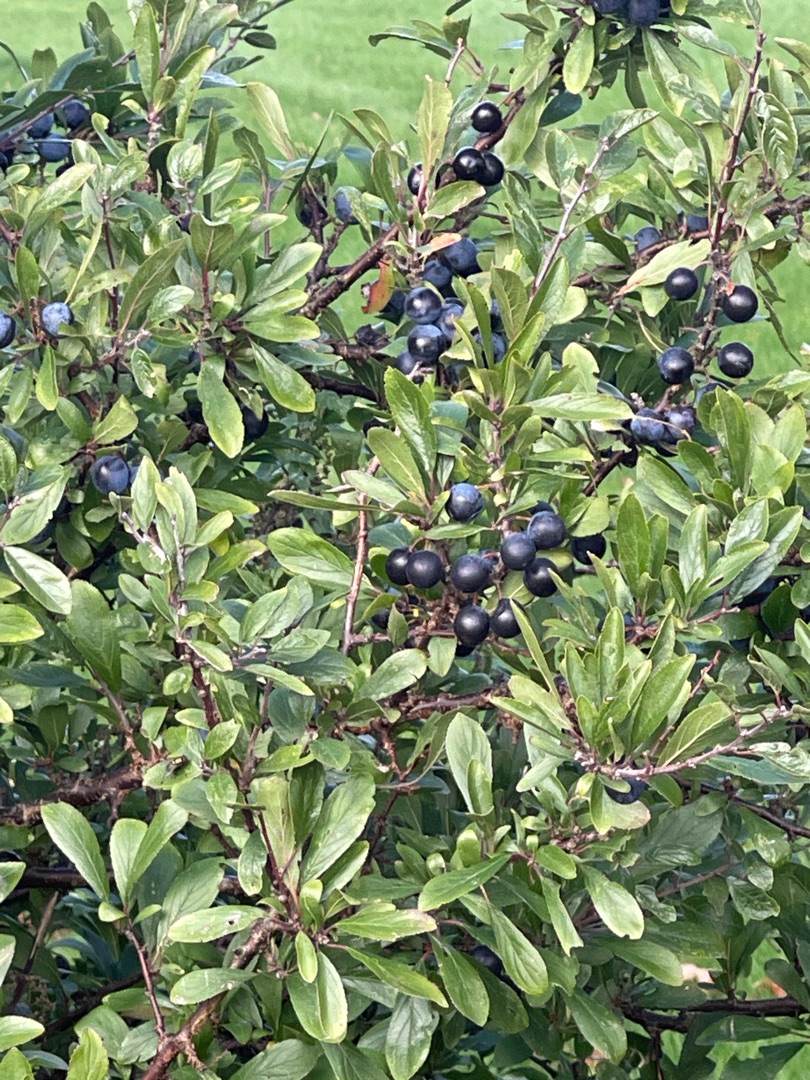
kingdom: Plantae
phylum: Tracheophyta
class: Magnoliopsida
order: Rosales
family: Rosaceae
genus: Prunus
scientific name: Prunus spinosa
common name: Slåen
